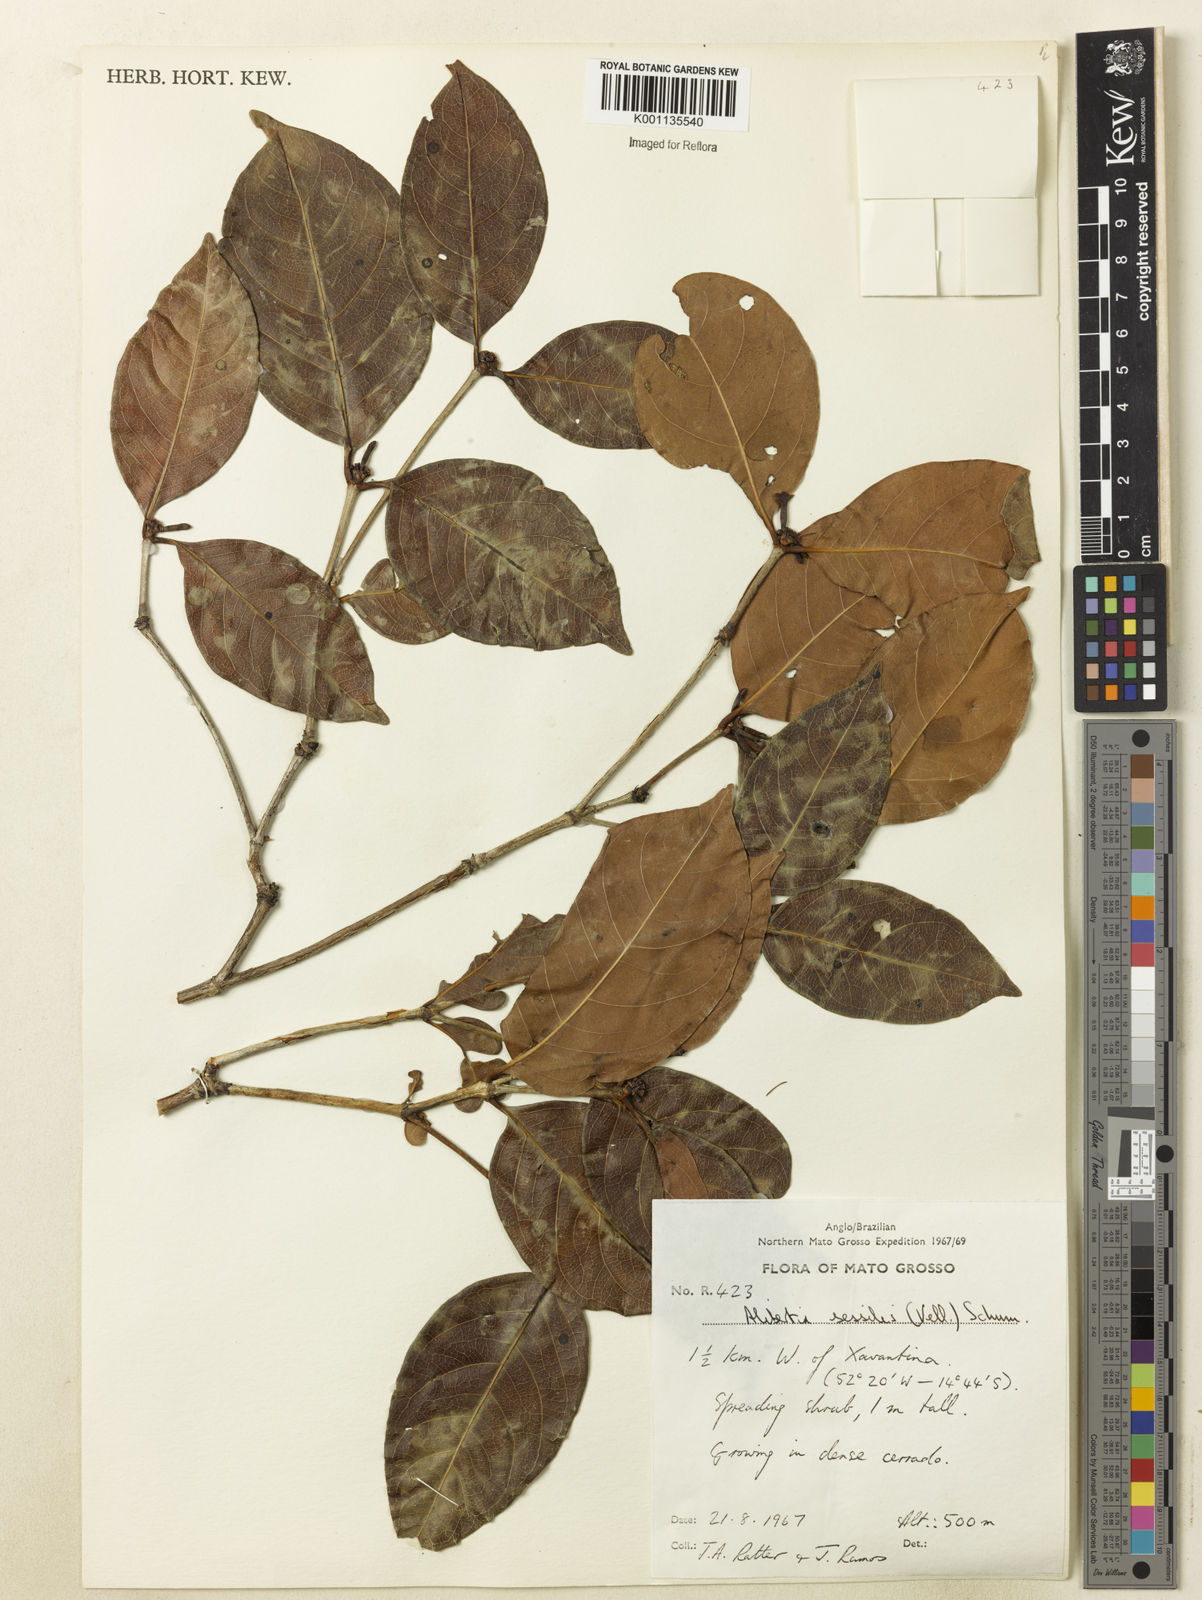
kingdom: Plantae
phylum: Tracheophyta
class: Magnoliopsida
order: Gentianales
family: Rubiaceae
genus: Cordiera
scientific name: Cordiera sessilis
